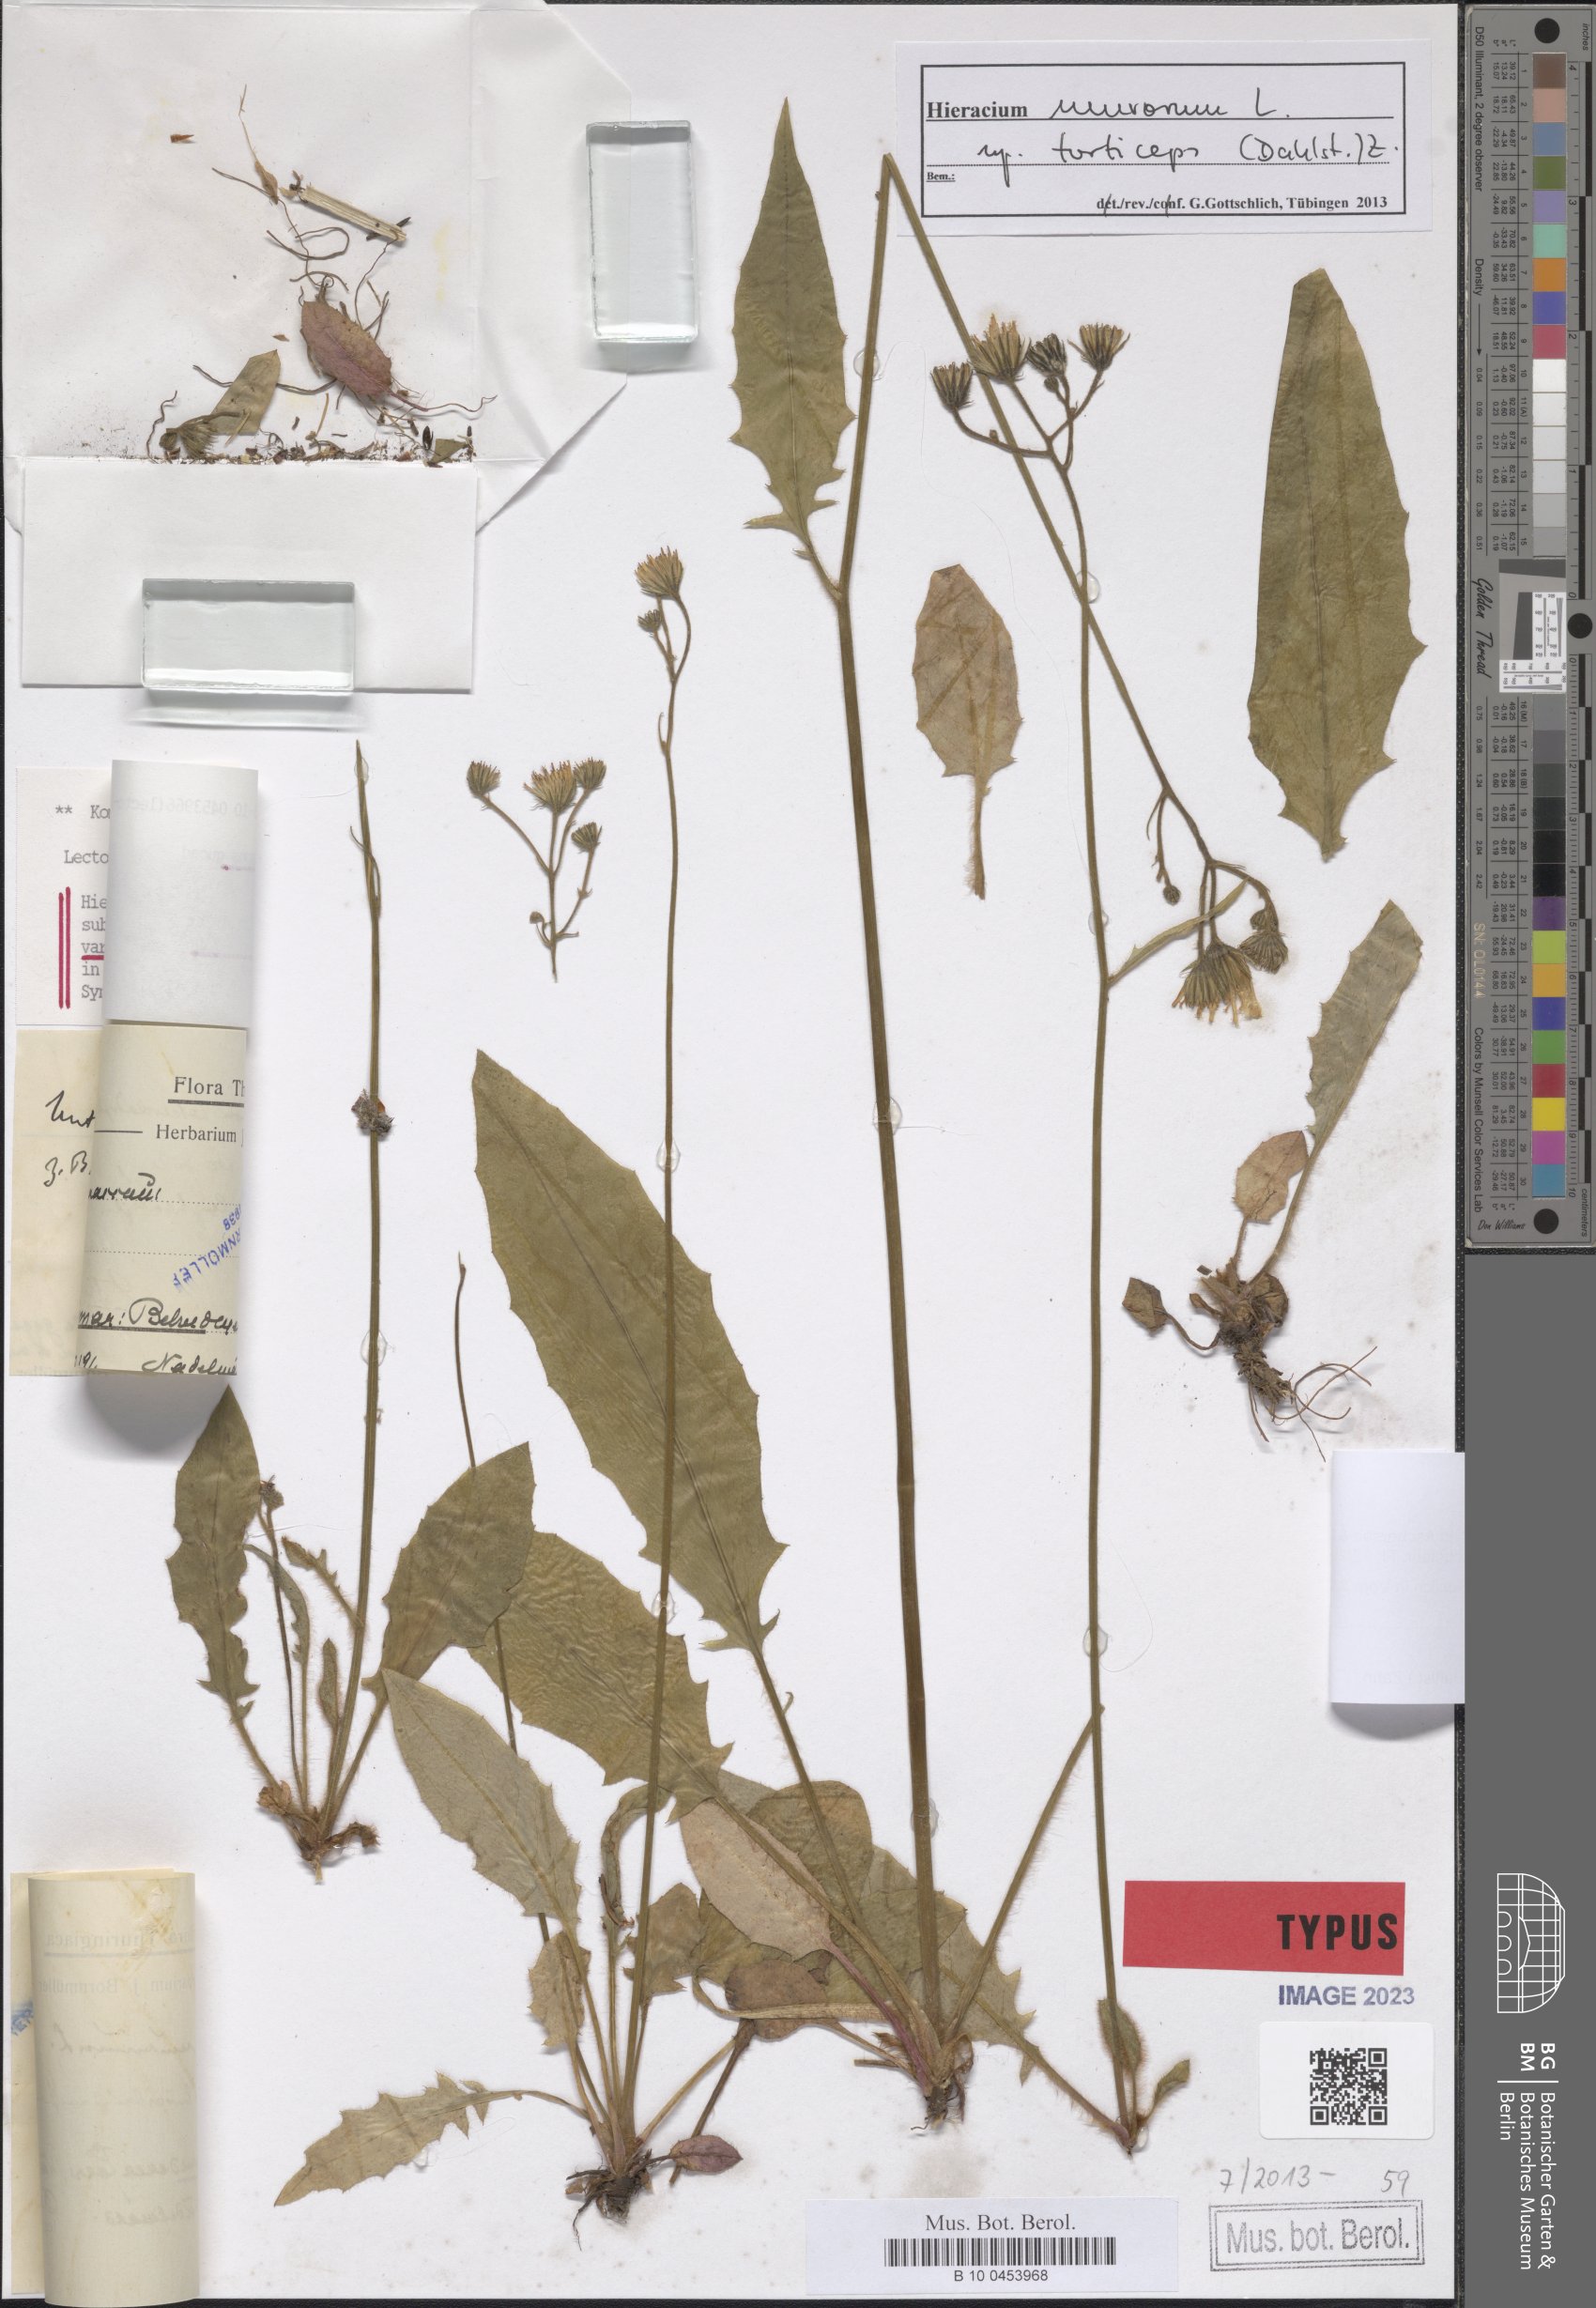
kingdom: Plantae
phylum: Tracheophyta
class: Magnoliopsida
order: Asterales
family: Asteraceae
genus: Hieracium
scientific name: Hieracium murorum
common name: Wall hawkweed
